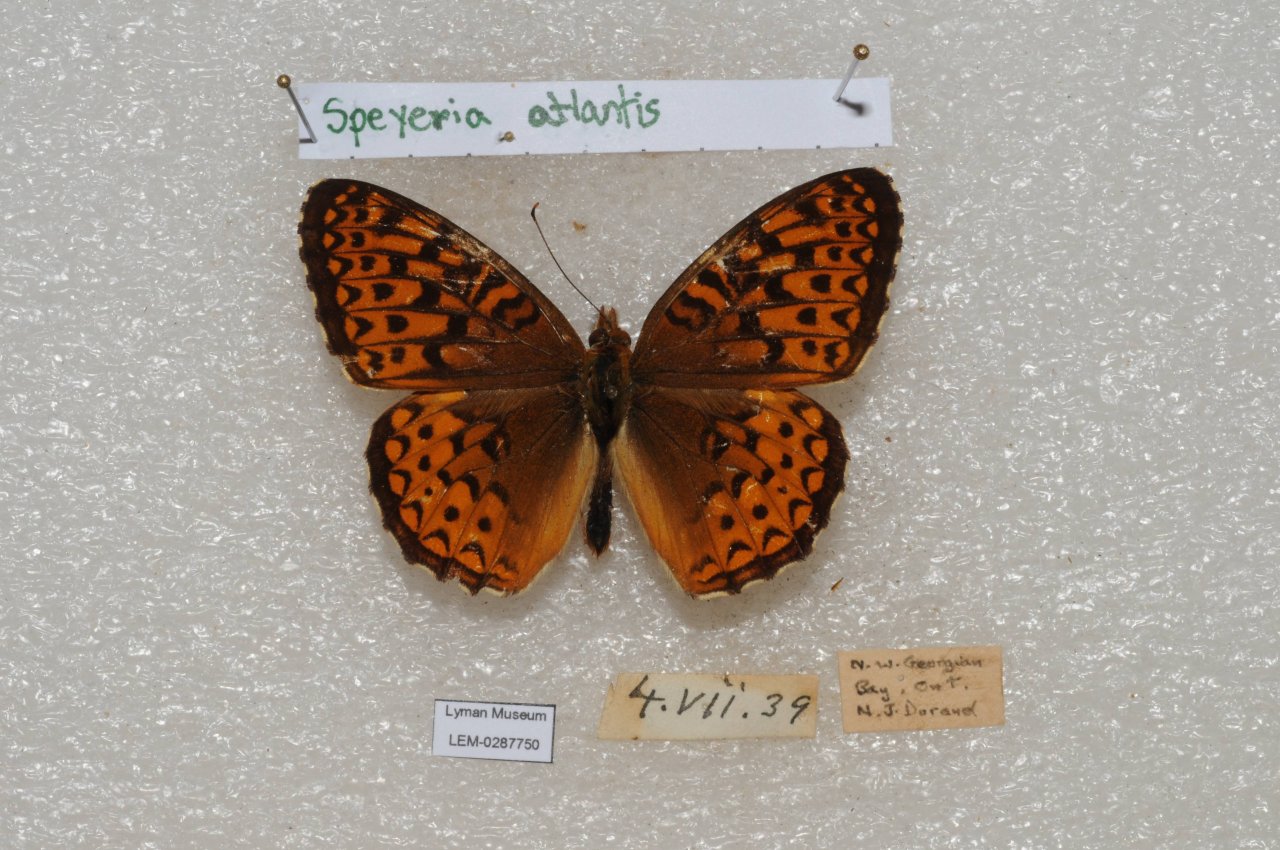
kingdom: Animalia
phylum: Arthropoda
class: Insecta
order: Lepidoptera
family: Nymphalidae
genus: Speyeria
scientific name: Speyeria atlantis
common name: Atlantis Fritillary
